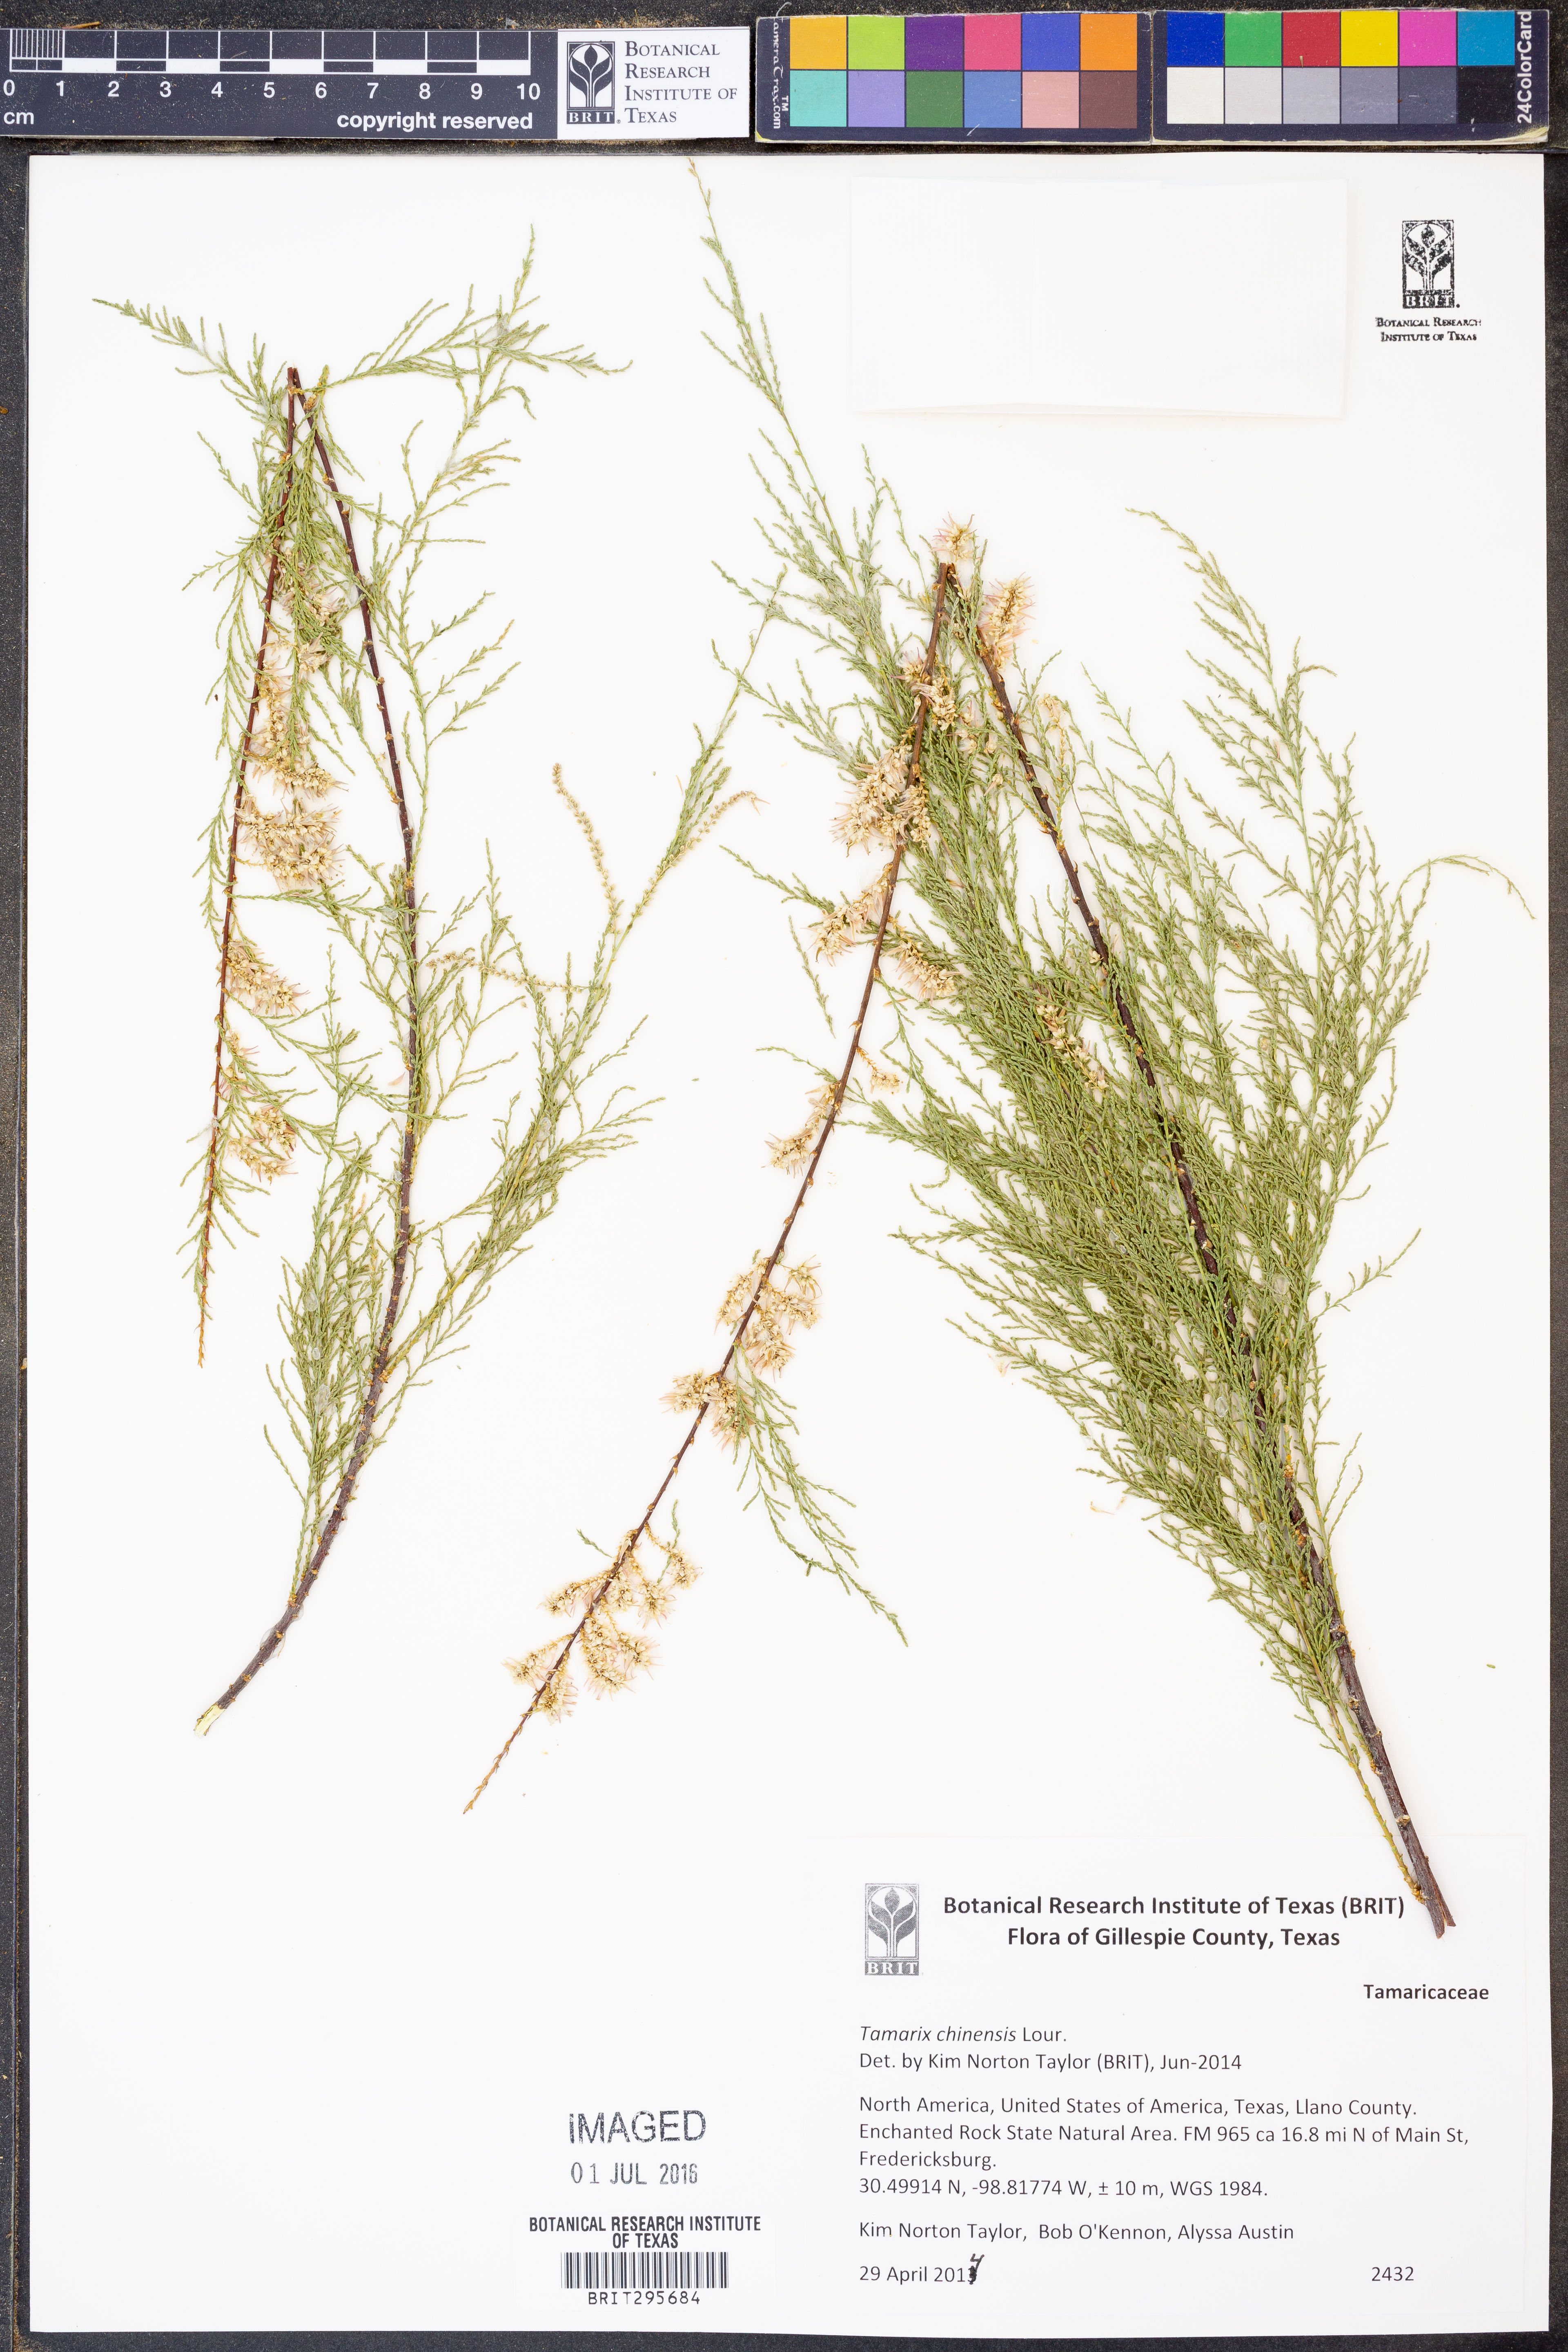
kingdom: Plantae
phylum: Tracheophyta
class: Magnoliopsida
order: Caryophyllales
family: Tamaricaceae
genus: Tamarix
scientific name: Tamarix chinensis
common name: Chinese tamarisk
